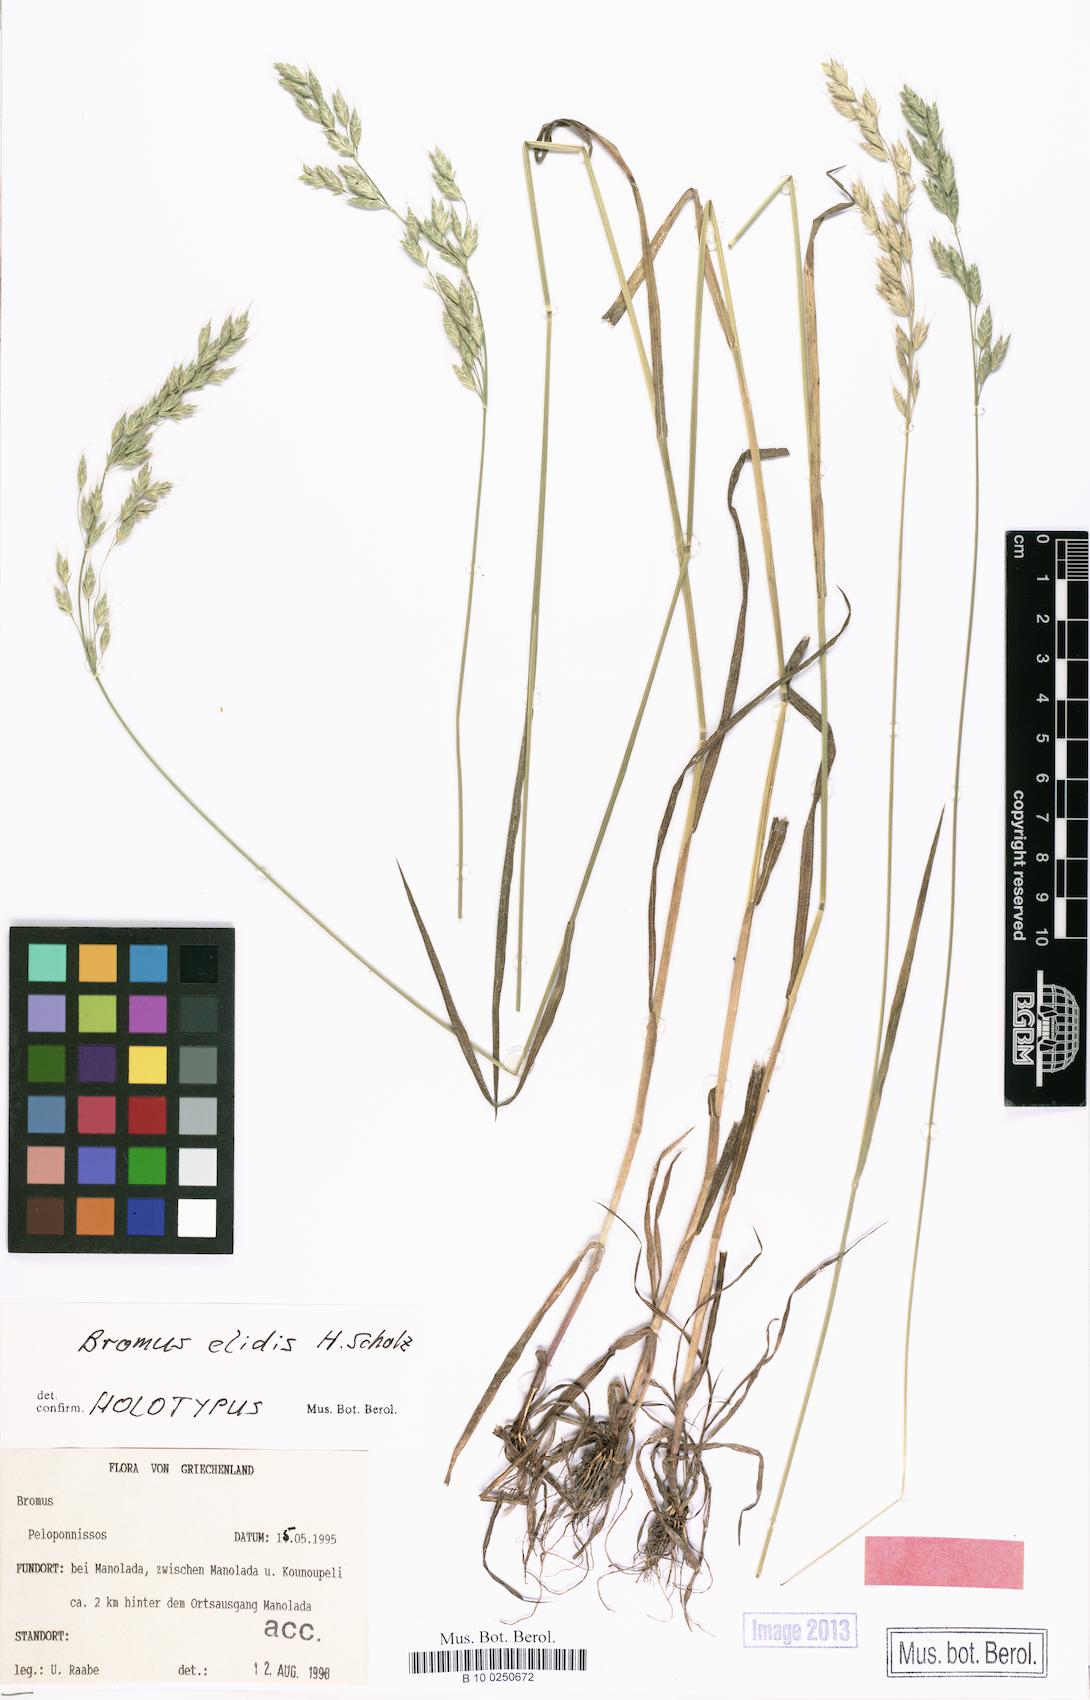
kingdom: Plantae
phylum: Tracheophyta
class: Liliopsida
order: Poales
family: Poaceae
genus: Bromus
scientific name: Bromus elidis
